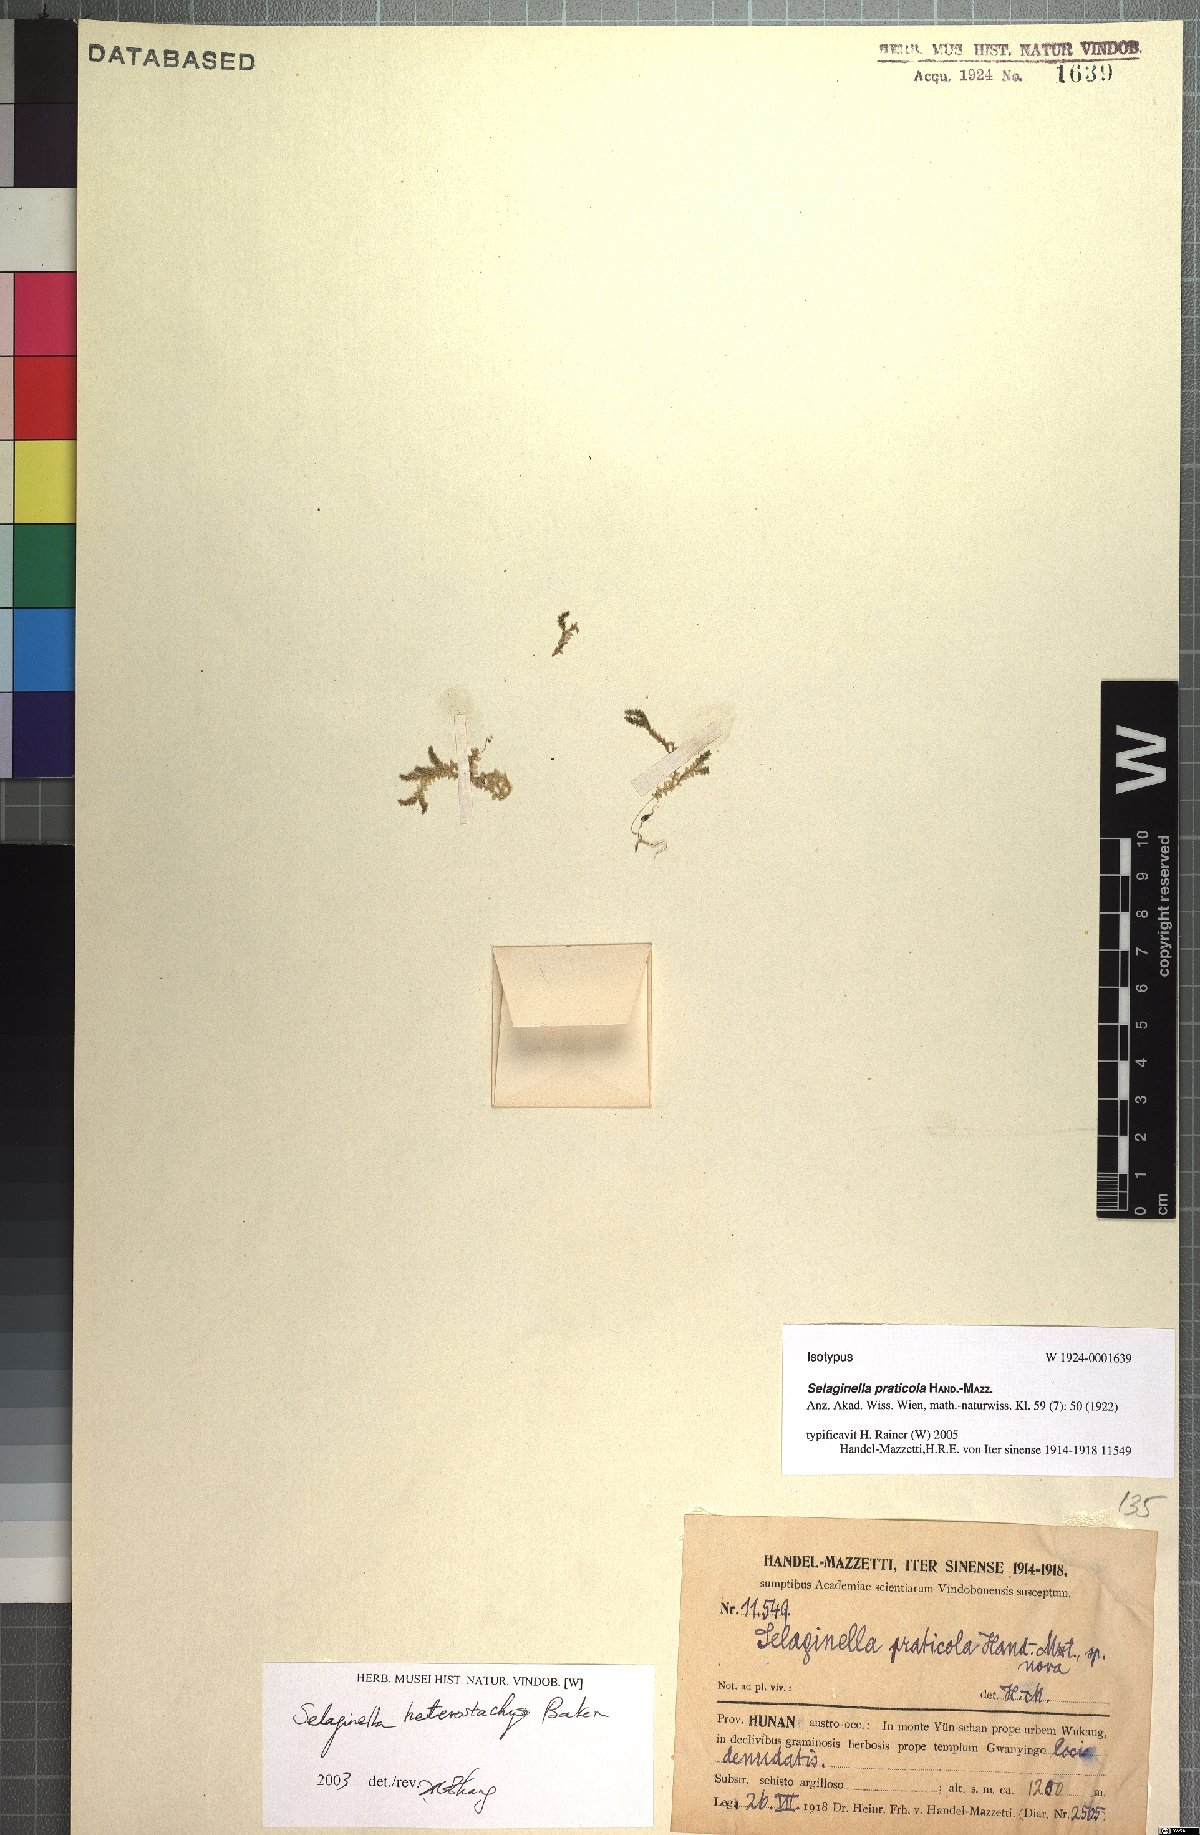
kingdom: Plantae
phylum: Tracheophyta
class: Lycopodiopsida
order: Selaginellales
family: Selaginellaceae
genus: Selaginella
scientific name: Selaginella heterostachys
